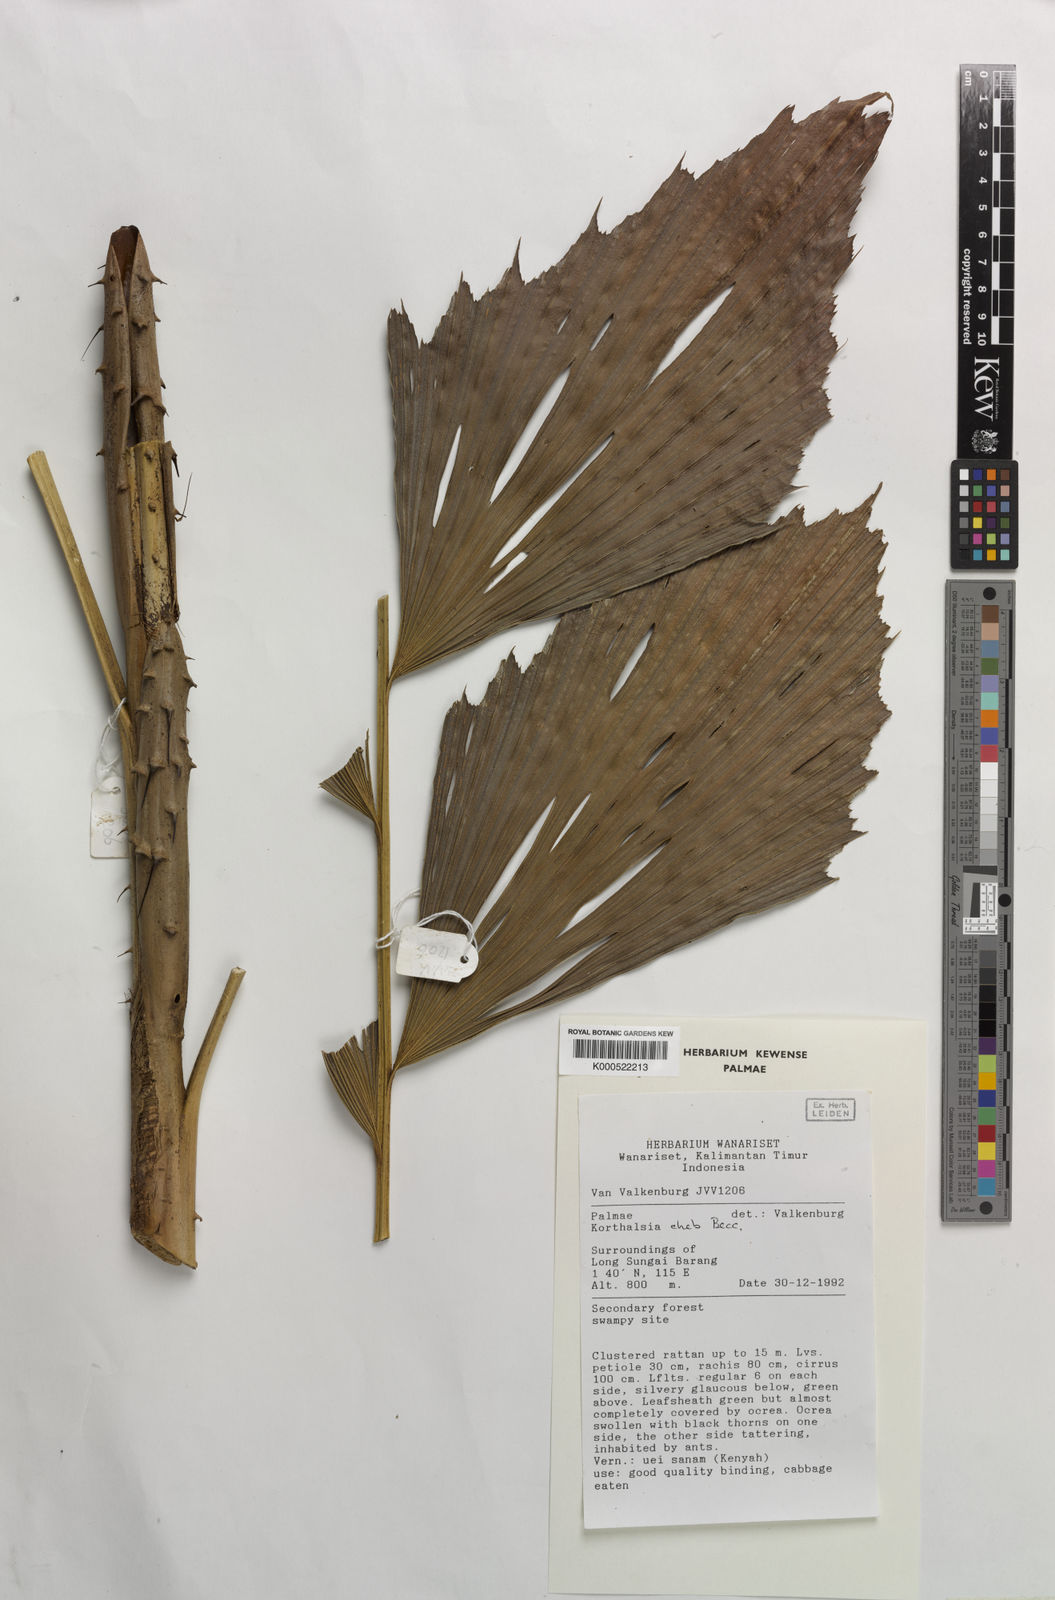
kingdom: Plantae
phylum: Tracheophyta
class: Liliopsida
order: Arecales
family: Arecaceae
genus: Korthalsia
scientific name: Korthalsia cheb
